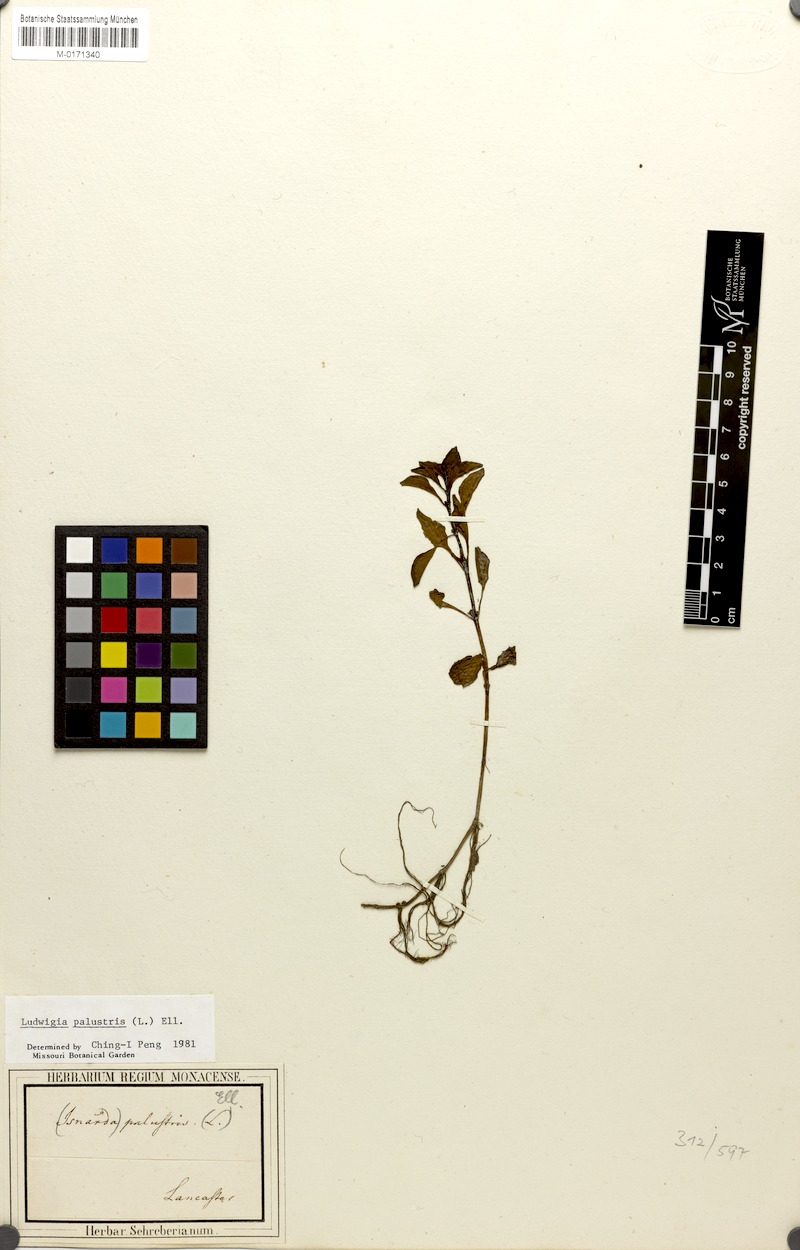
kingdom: Plantae
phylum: Tracheophyta
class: Magnoliopsida
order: Myrtales
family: Onagraceae
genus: Ludwigia
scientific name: Ludwigia palustris
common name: Hampshire-purslane
